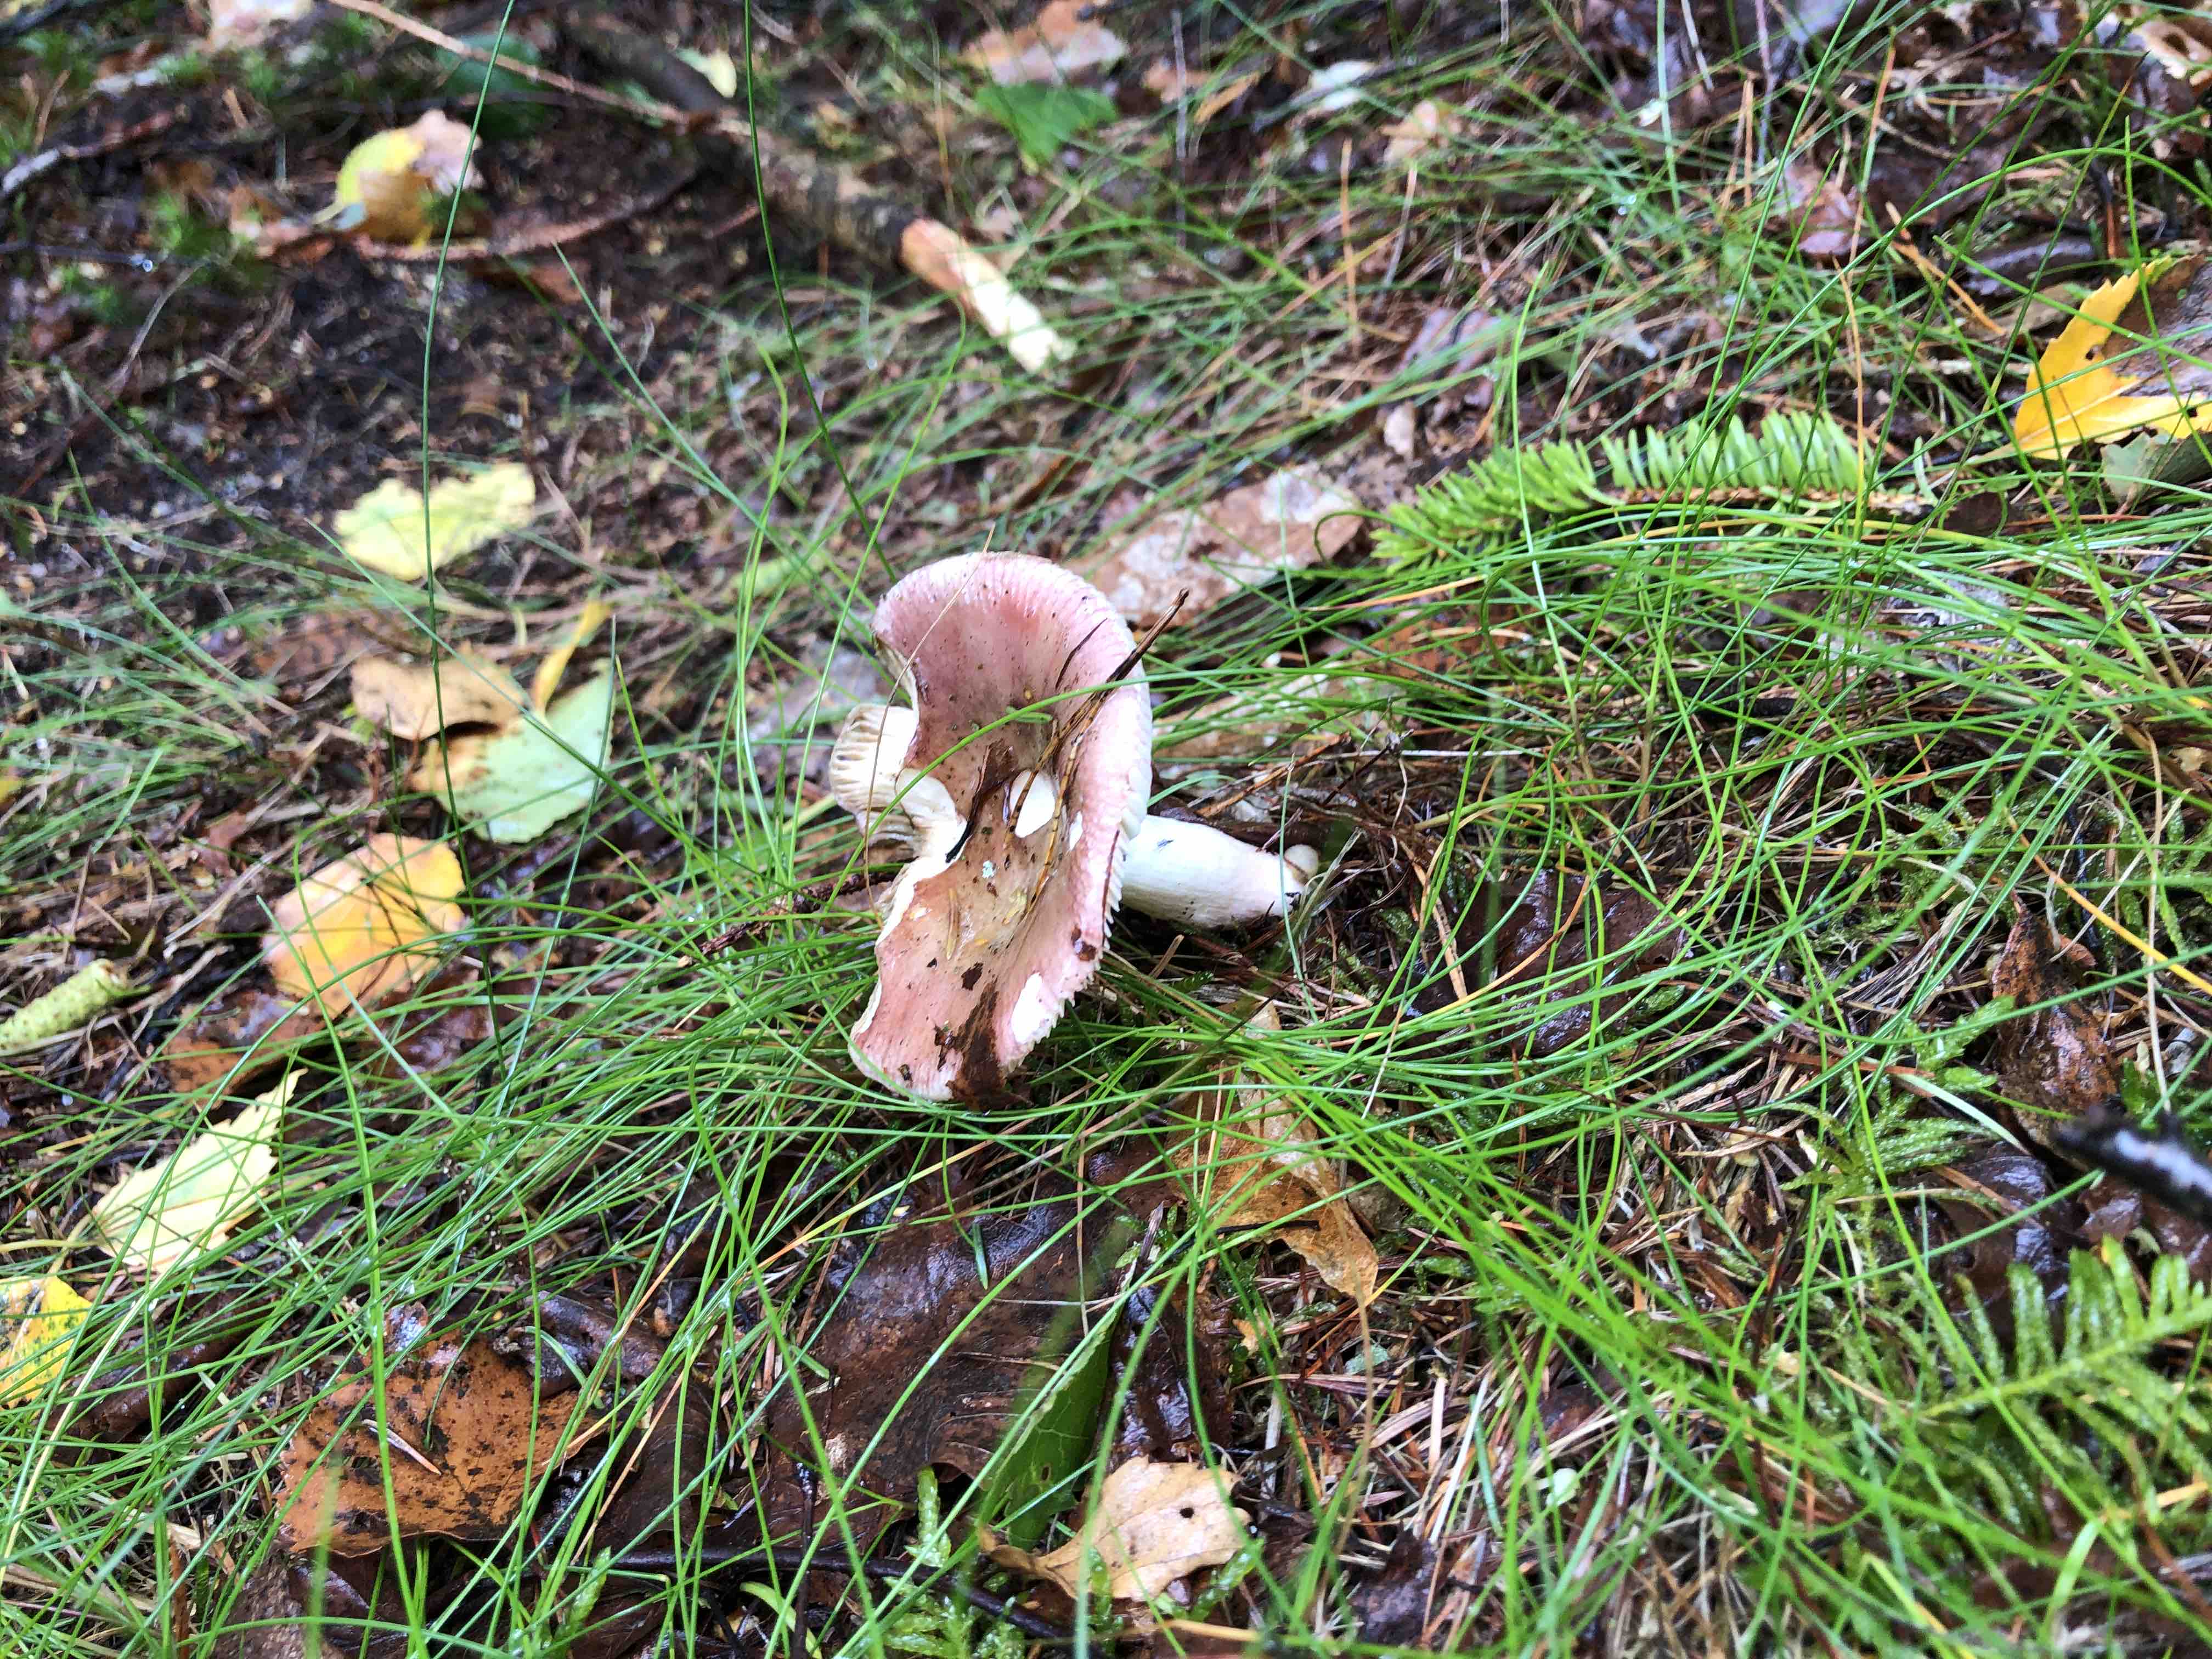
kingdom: Fungi
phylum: Basidiomycota
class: Agaricomycetes
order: Russulales
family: Russulaceae
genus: Russula
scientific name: Russula nitida
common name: året skørhat
